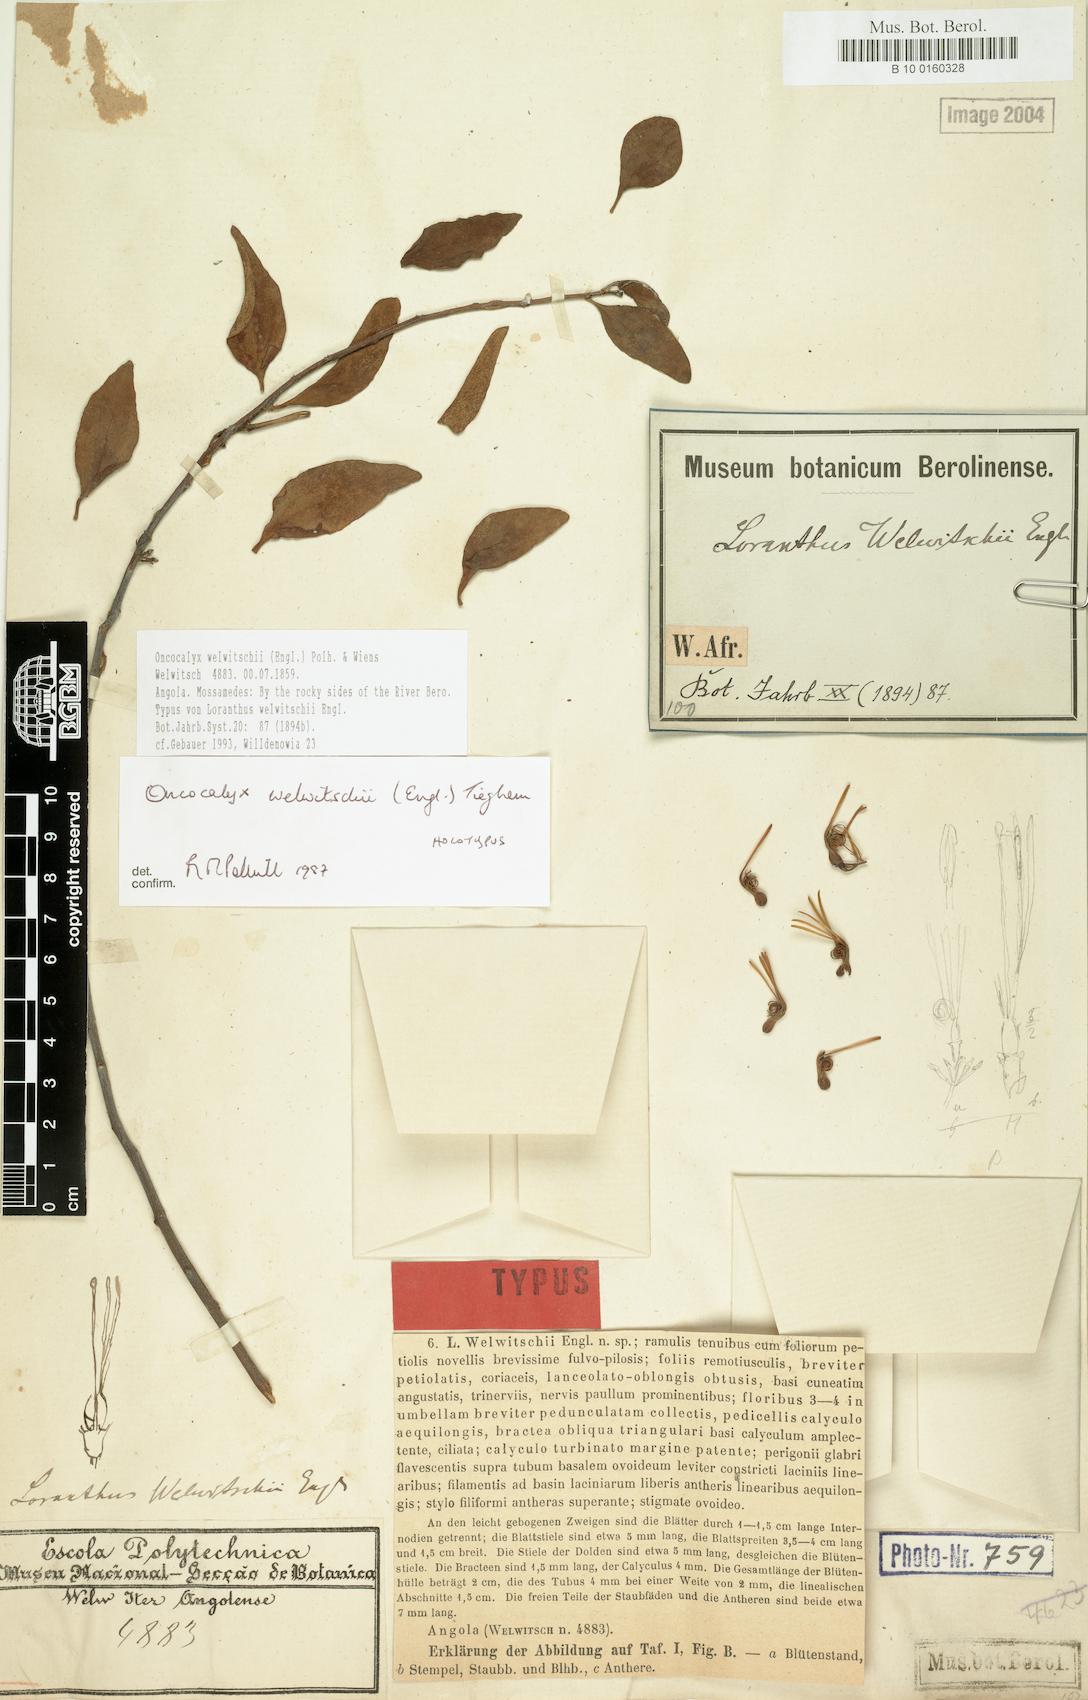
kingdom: Plantae
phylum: Tracheophyta
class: Magnoliopsida
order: Santalales
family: Loranthaceae
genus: Loranthella
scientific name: Loranthella welwitschii
